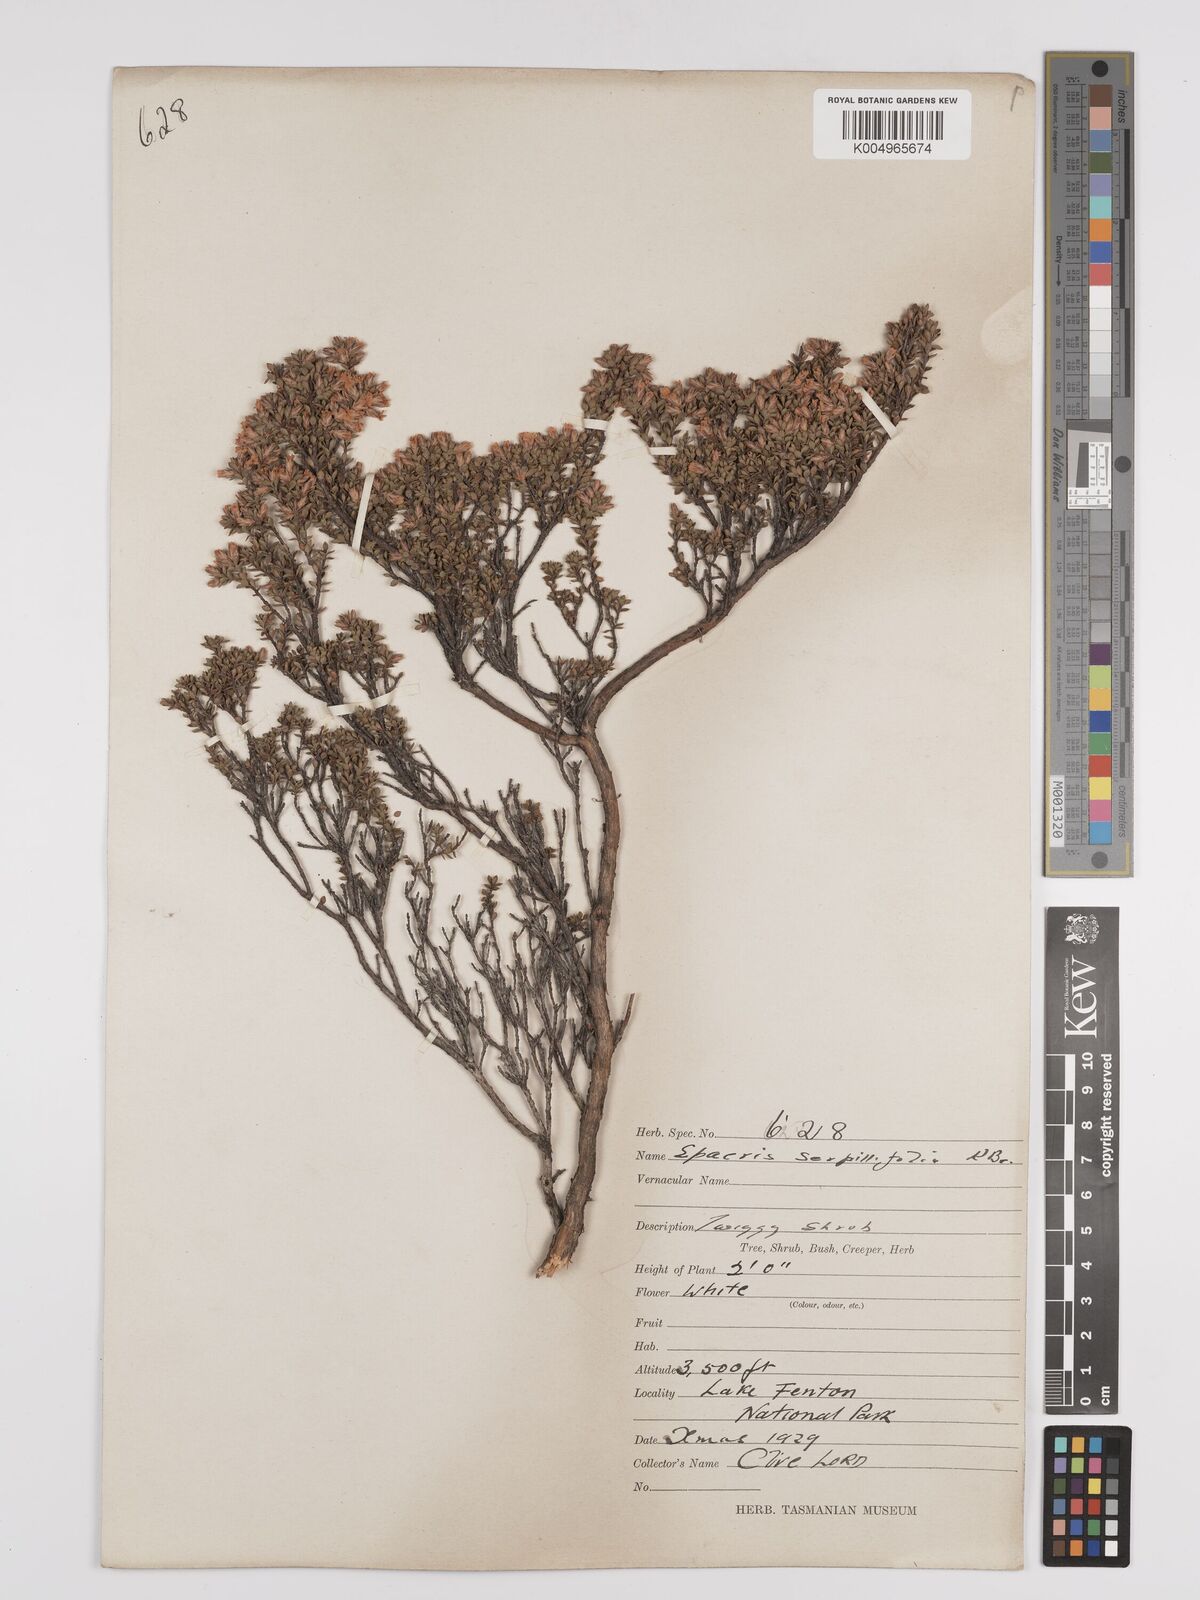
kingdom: Plantae
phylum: Tracheophyta
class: Magnoliopsida
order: Ericales
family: Ericaceae
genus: Epacris
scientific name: Epacris serpyllifolia
